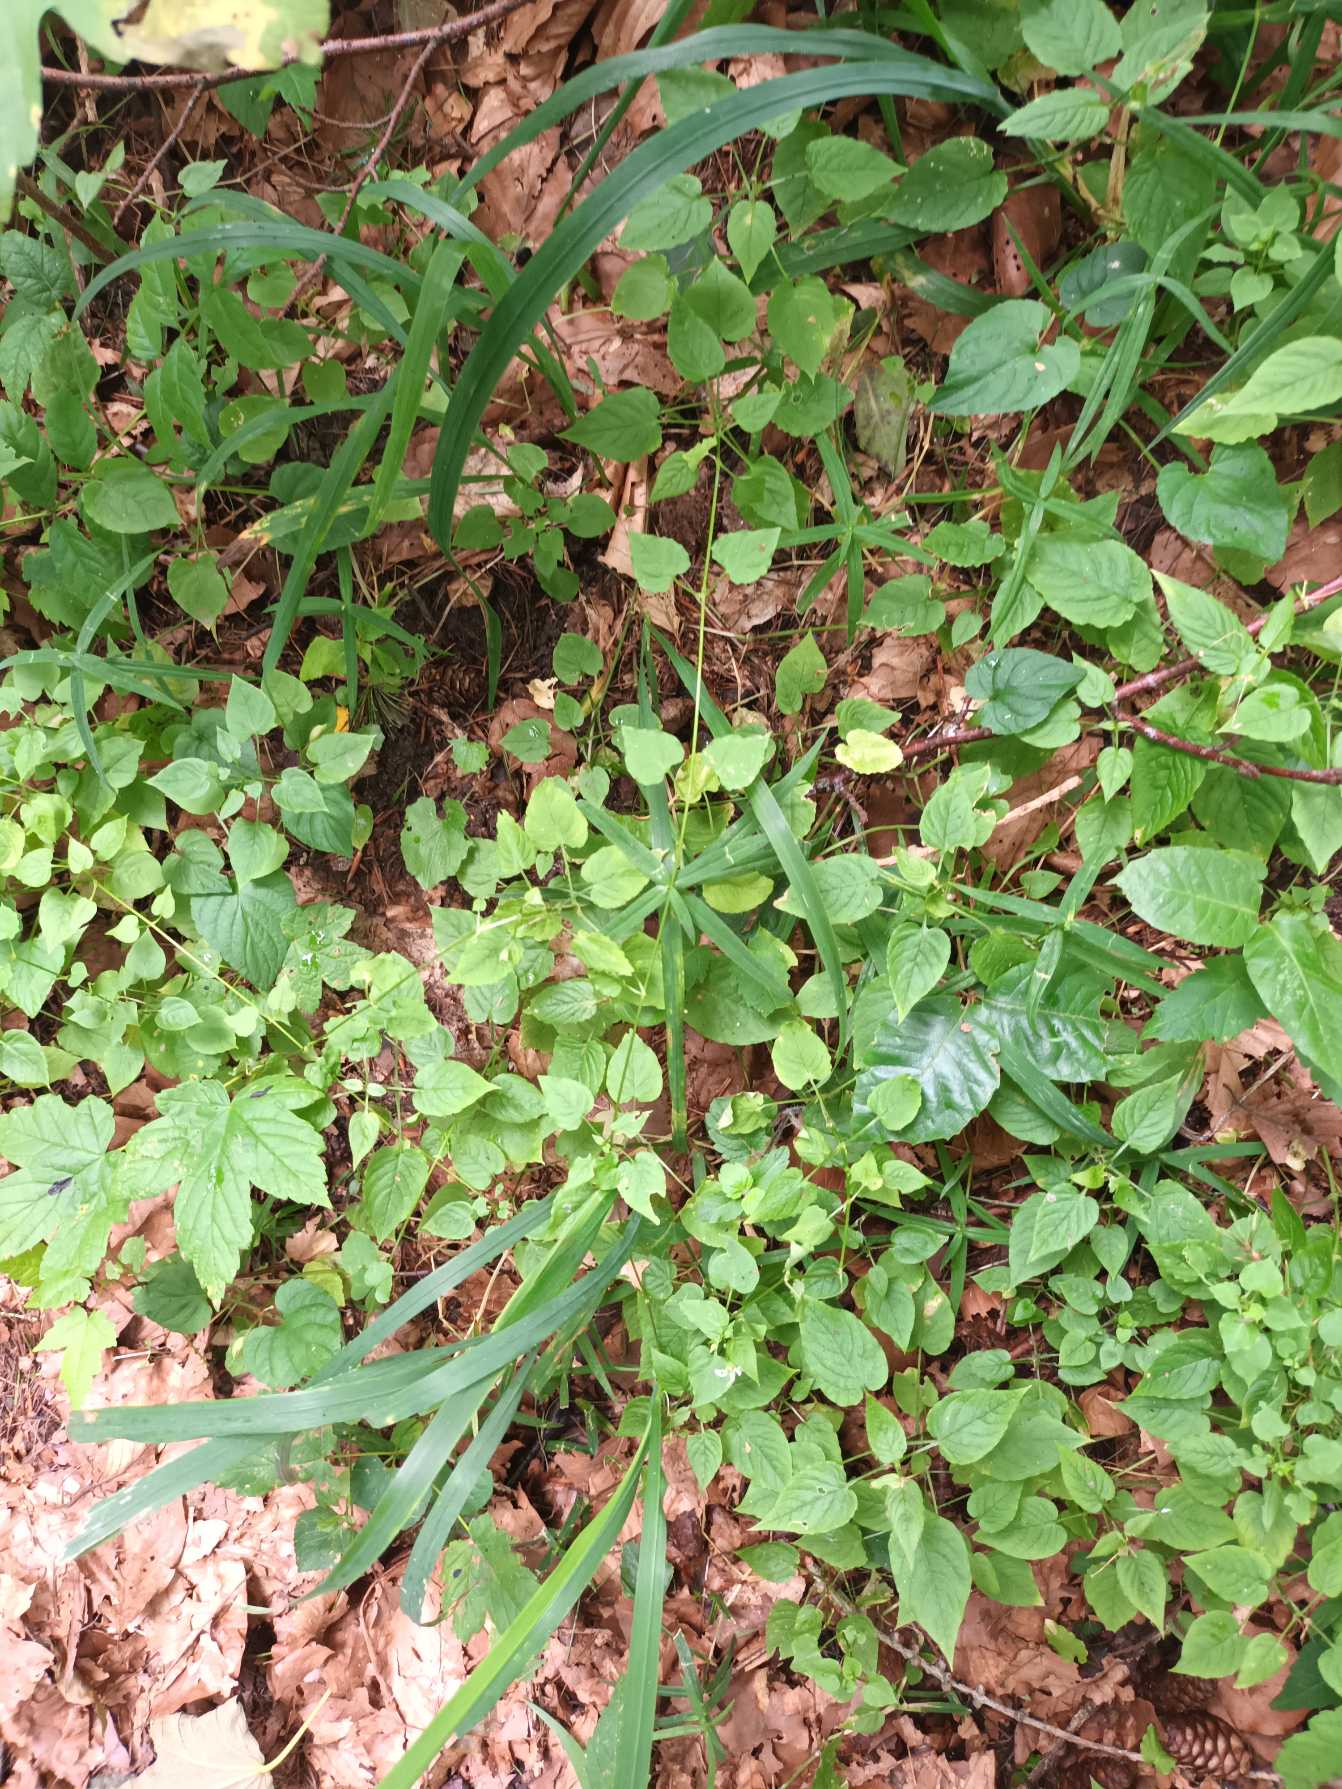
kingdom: Plantae
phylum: Tracheophyta
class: Magnoliopsida
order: Caryophyllales
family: Caryophyllaceae
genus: Stellaria
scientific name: Stellaria glochidisperma
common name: Sydlig lund-fladstjerne
